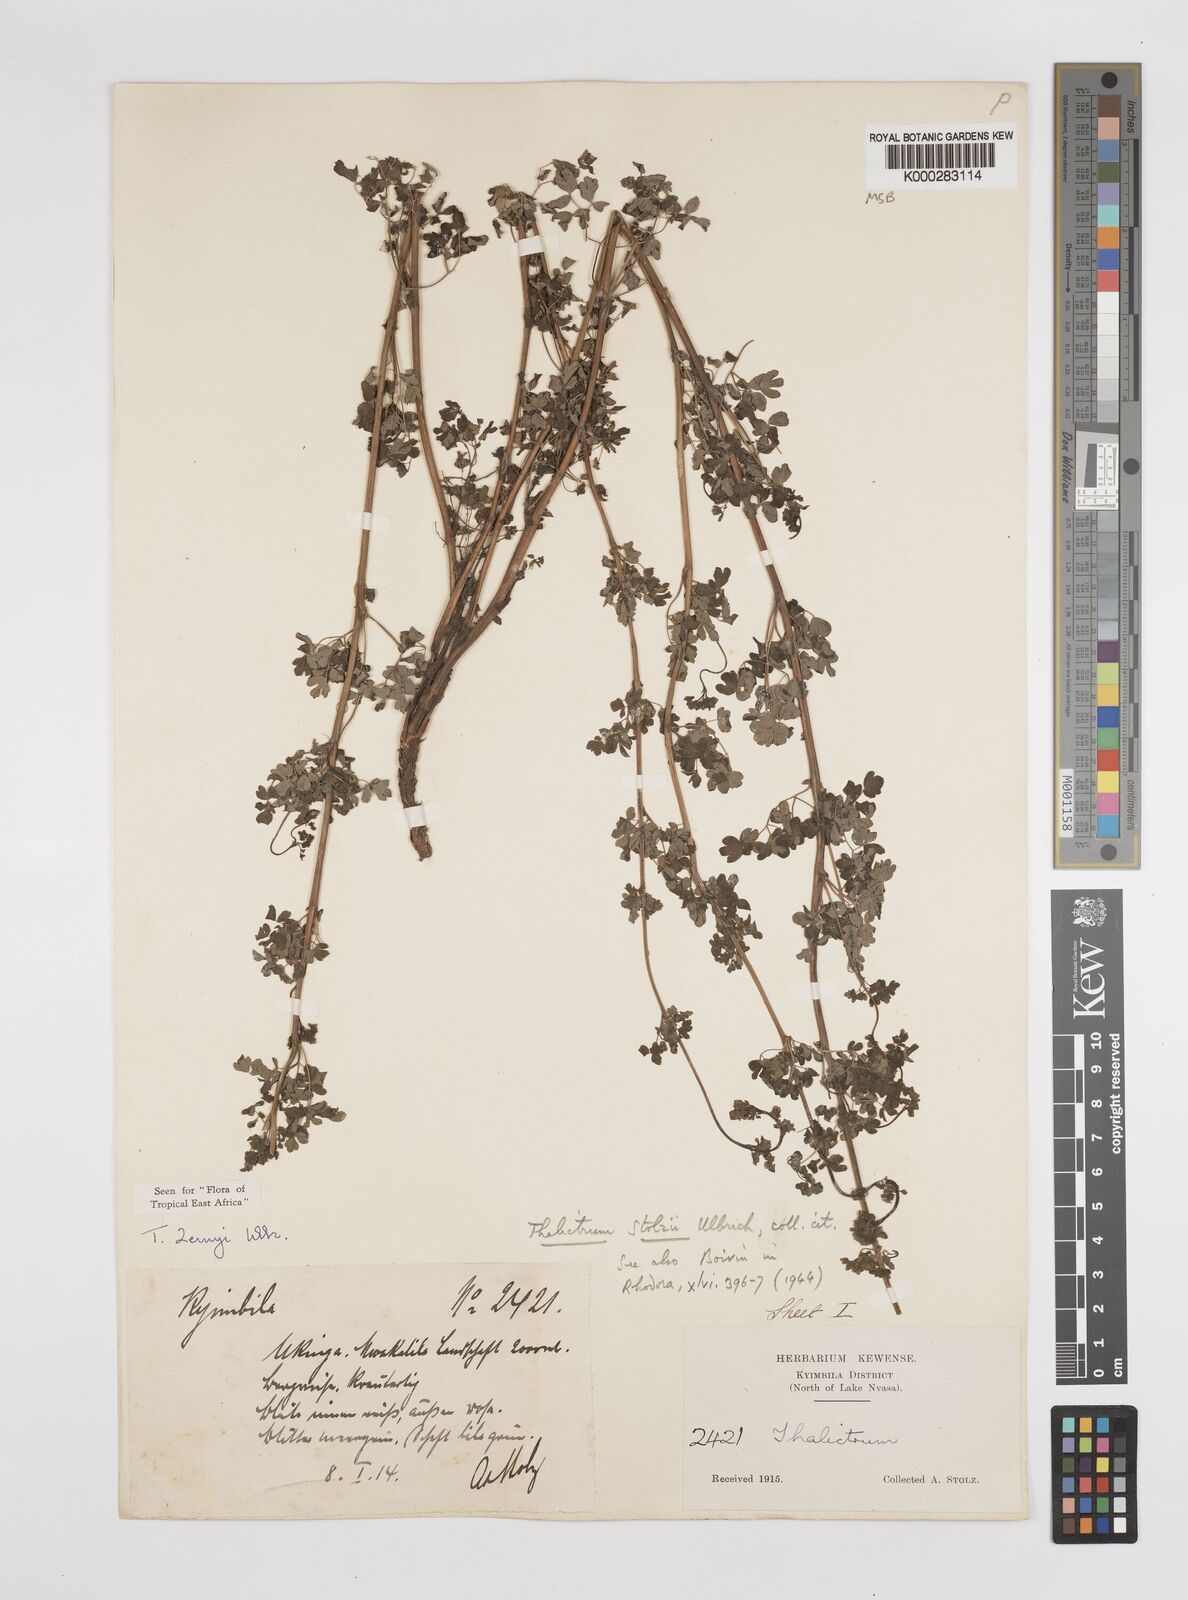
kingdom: Plantae
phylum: Tracheophyta
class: Magnoliopsida
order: Ranunculales
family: Ranunculaceae
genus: Thalictrum
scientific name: Thalictrum zernyi
